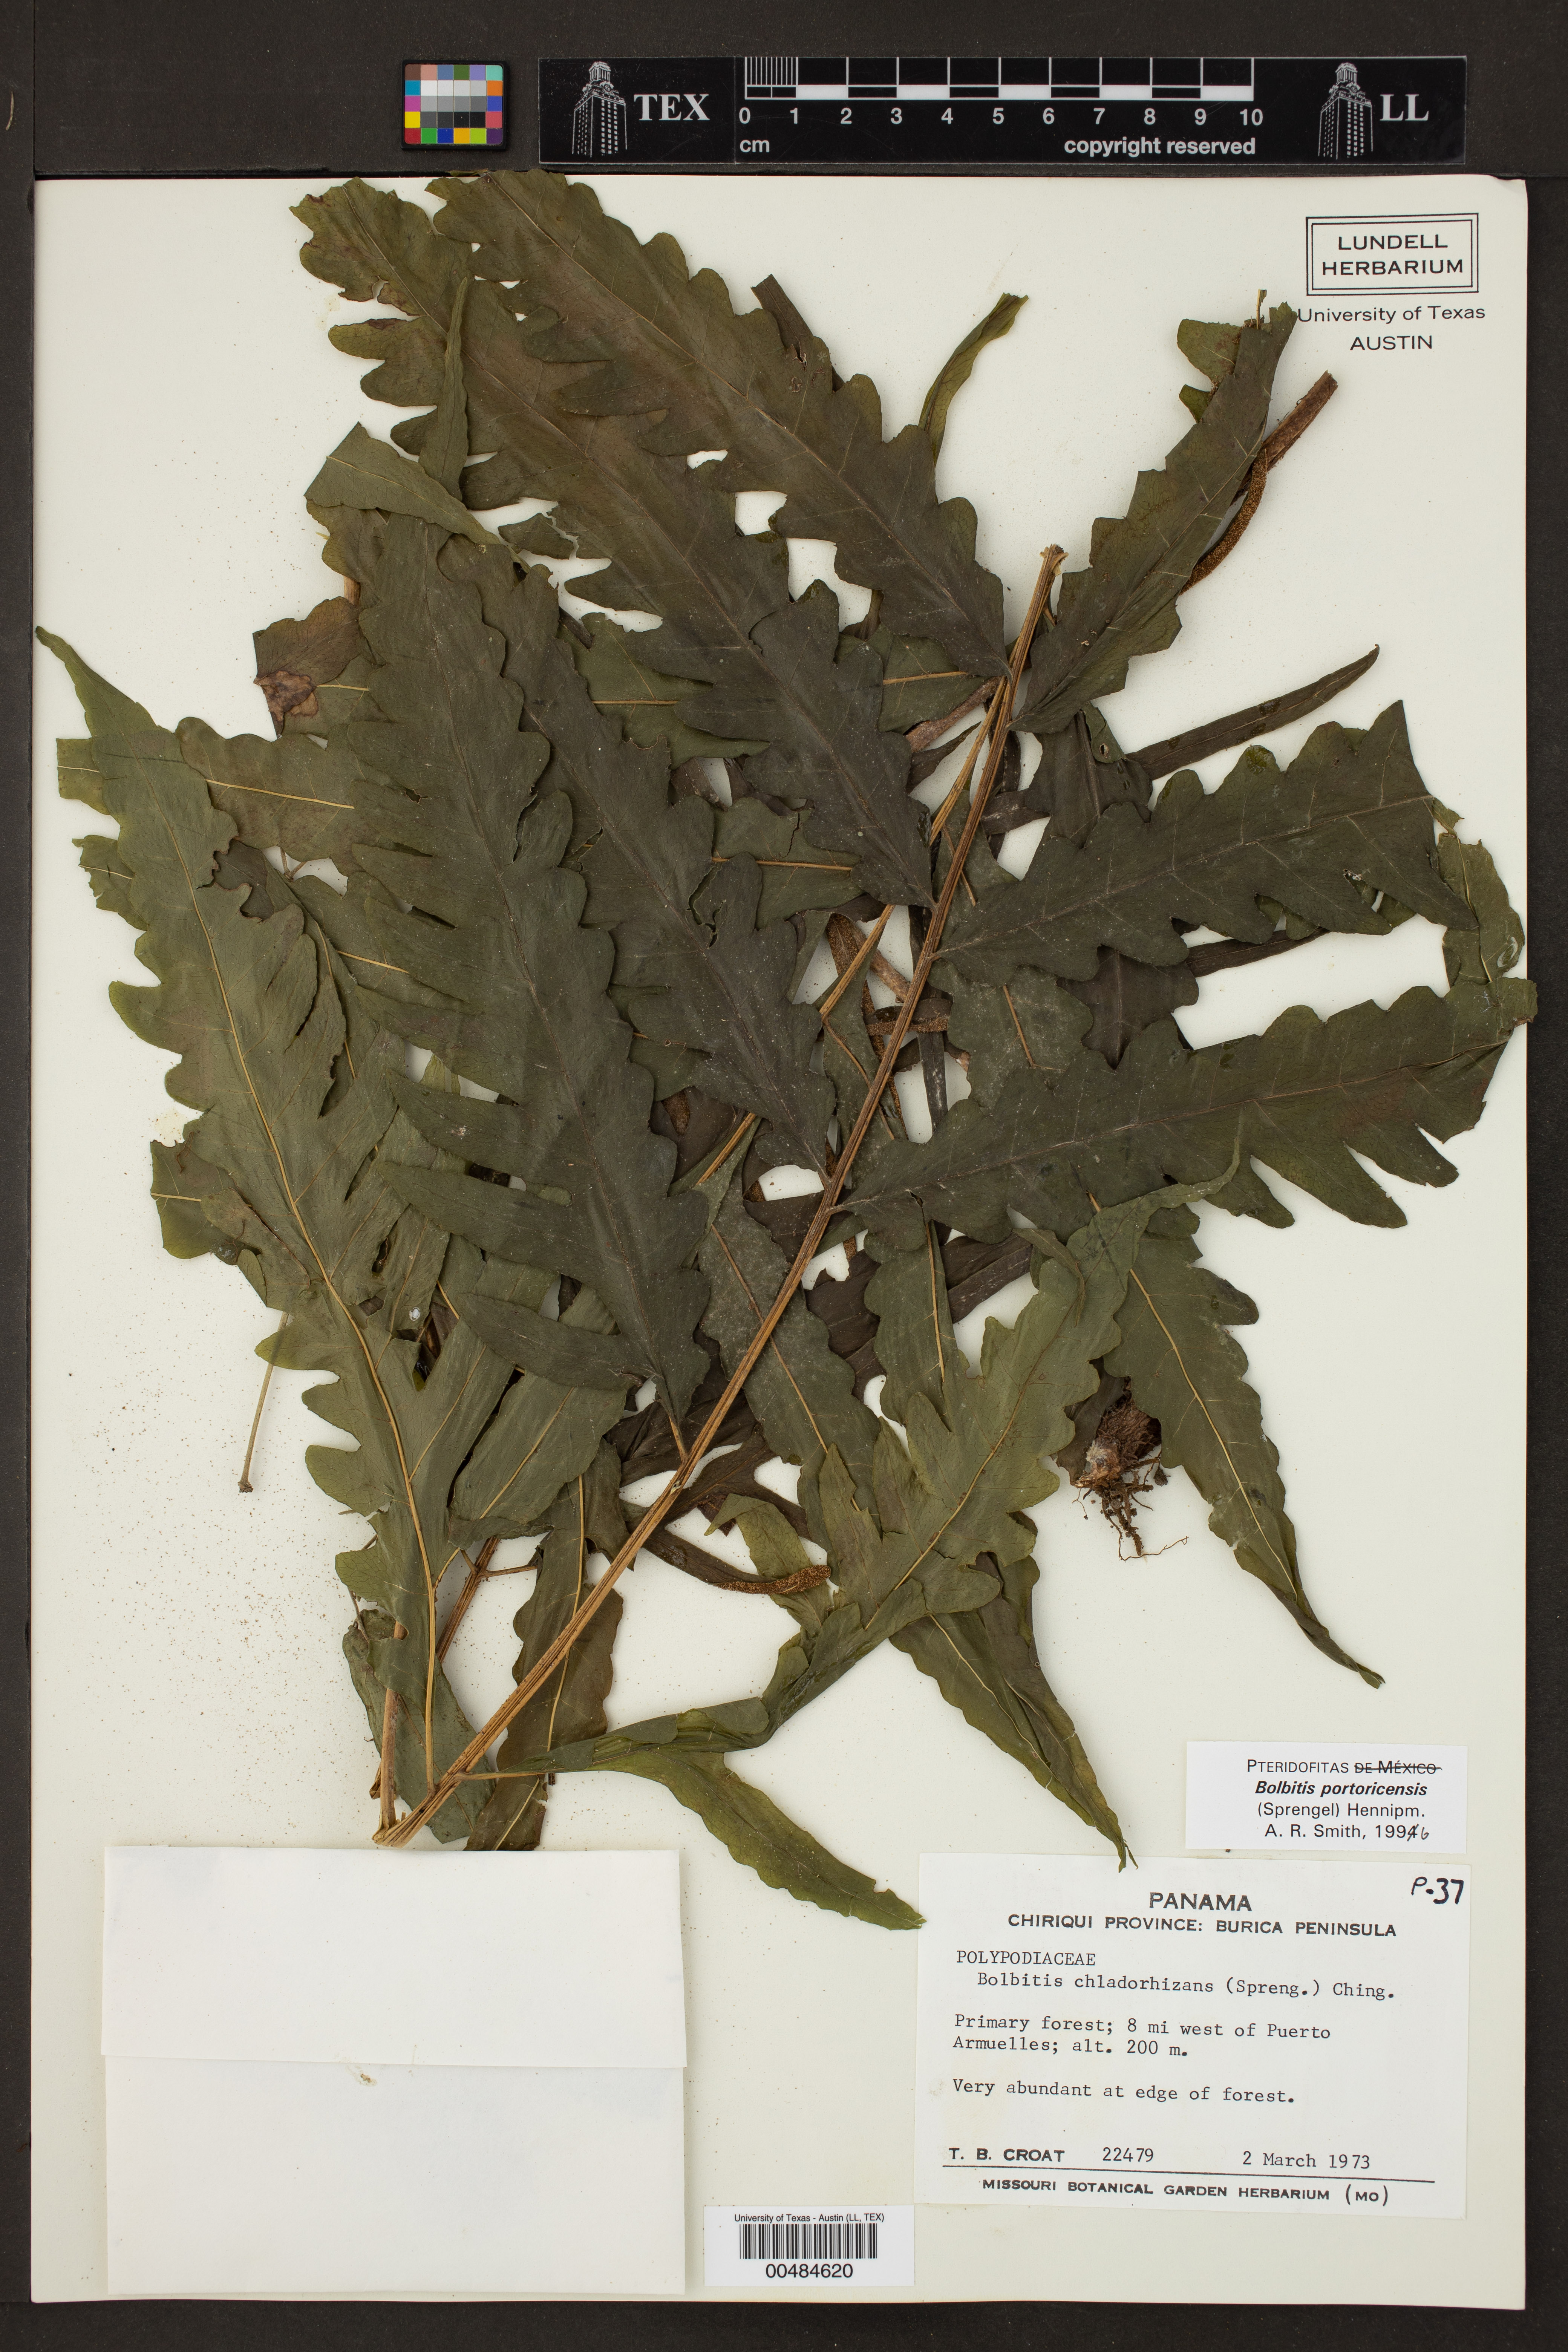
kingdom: Plantae
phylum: Tracheophyta
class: Polypodiopsida
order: Polypodiales
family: Dryopteridaceae
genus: Bolbitis
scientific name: Bolbitis portoricensis
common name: Puerto rico creepingfer
